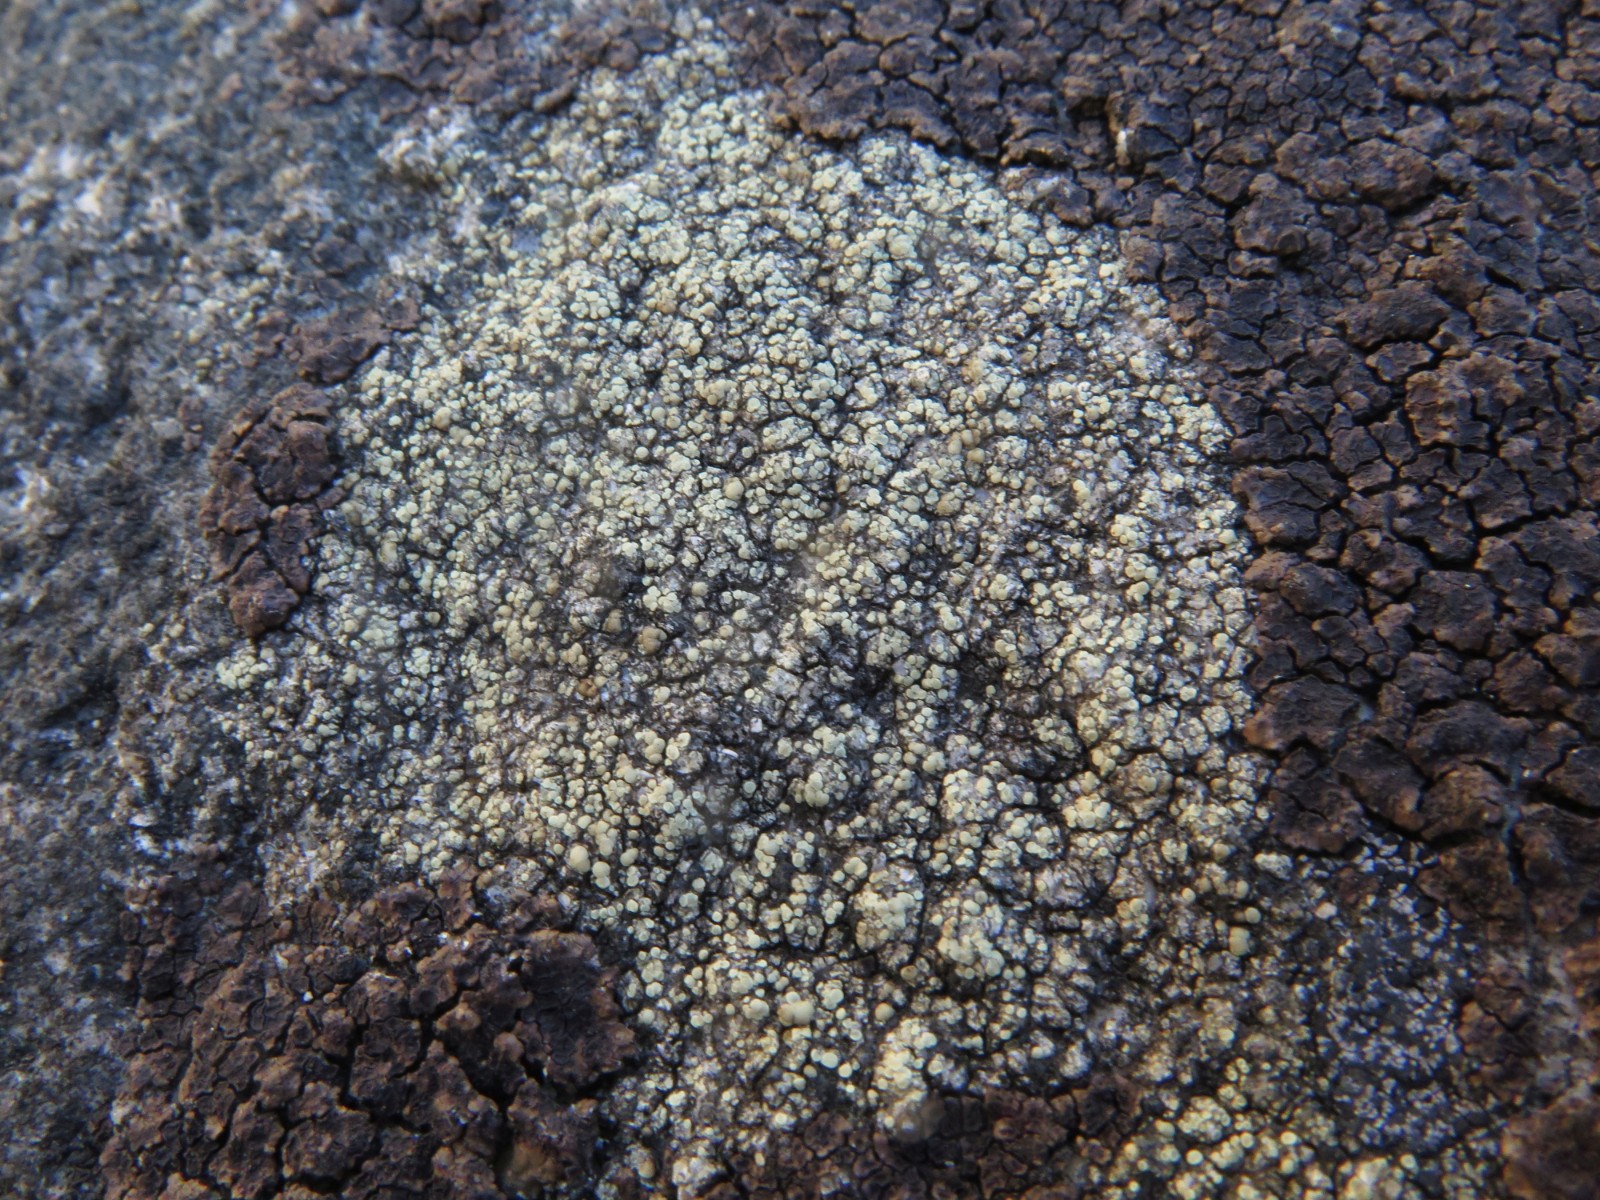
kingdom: Fungi
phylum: Ascomycota
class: Lecanoromycetes
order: Lecanorales
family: Lecanoraceae
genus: Lecanora
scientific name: Lecanora polytropa
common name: bleggrøn kantskivelav
